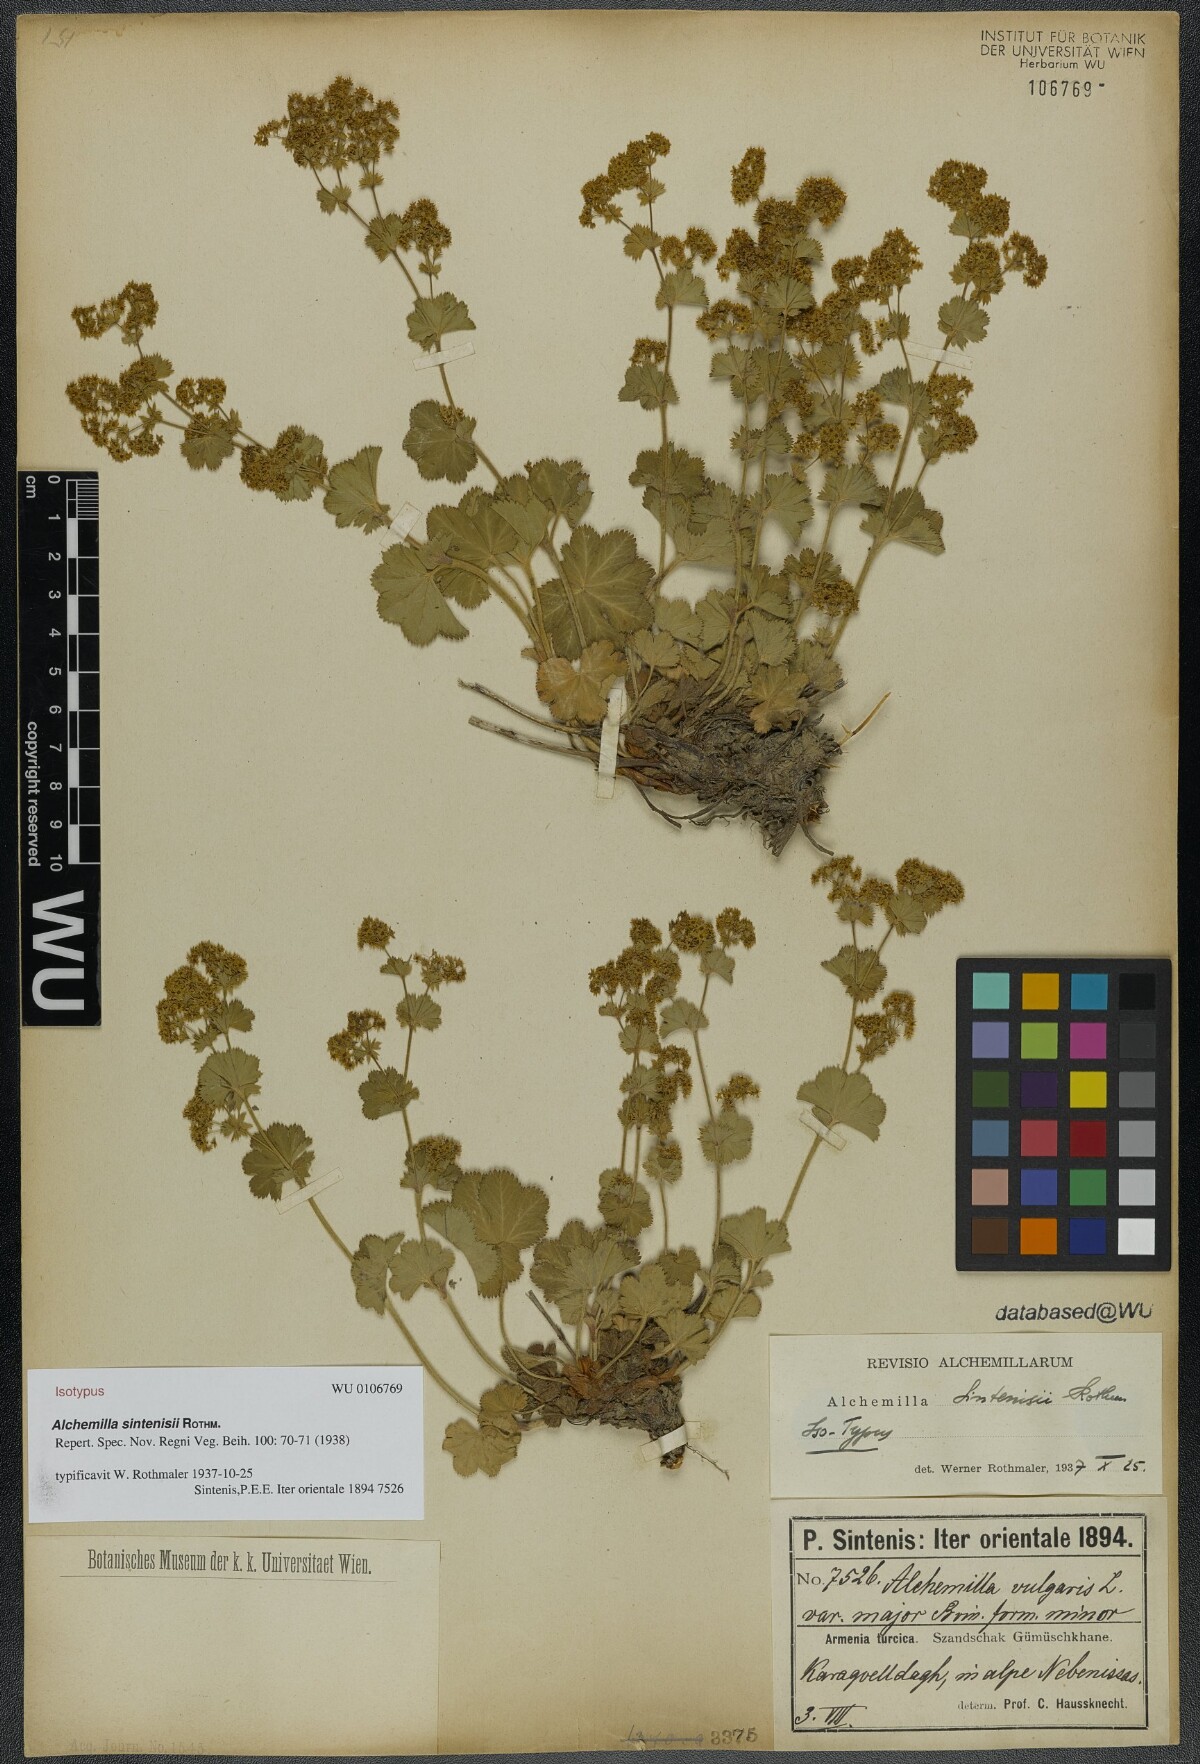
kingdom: Plantae
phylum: Tracheophyta
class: Magnoliopsida
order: Rosales
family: Rosaceae
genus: Alchemilla
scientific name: Alchemilla sintenisii
